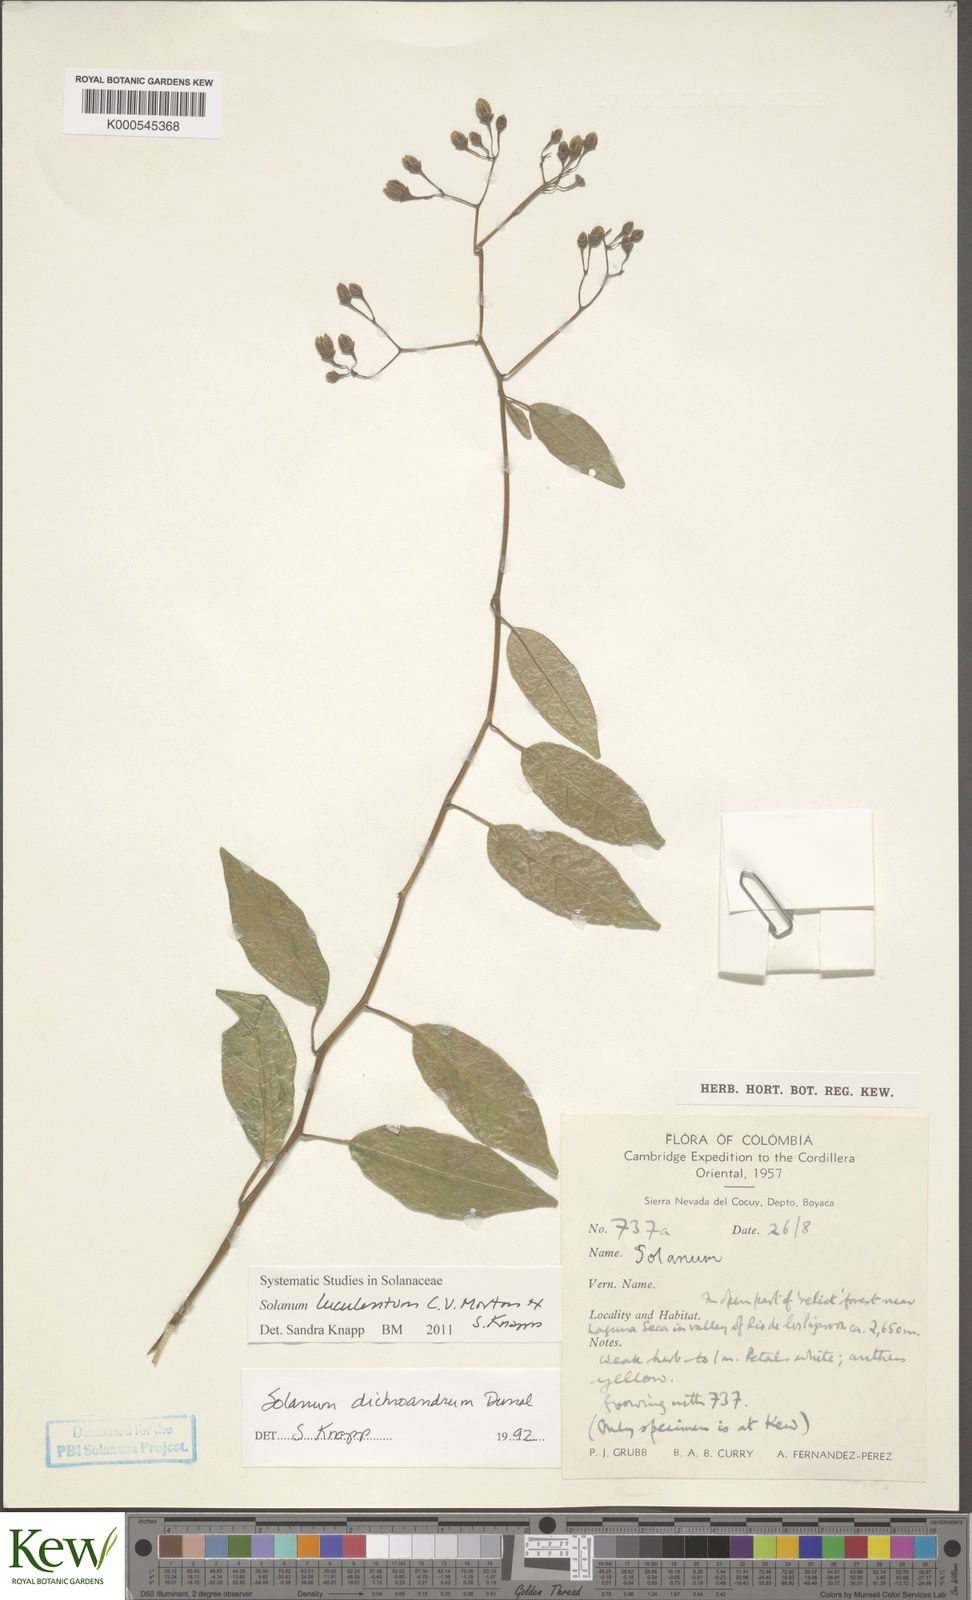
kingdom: Plantae
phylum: Tracheophyta
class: Magnoliopsida
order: Solanales
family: Solanaceae
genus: Solanum
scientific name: Solanum luculentum
